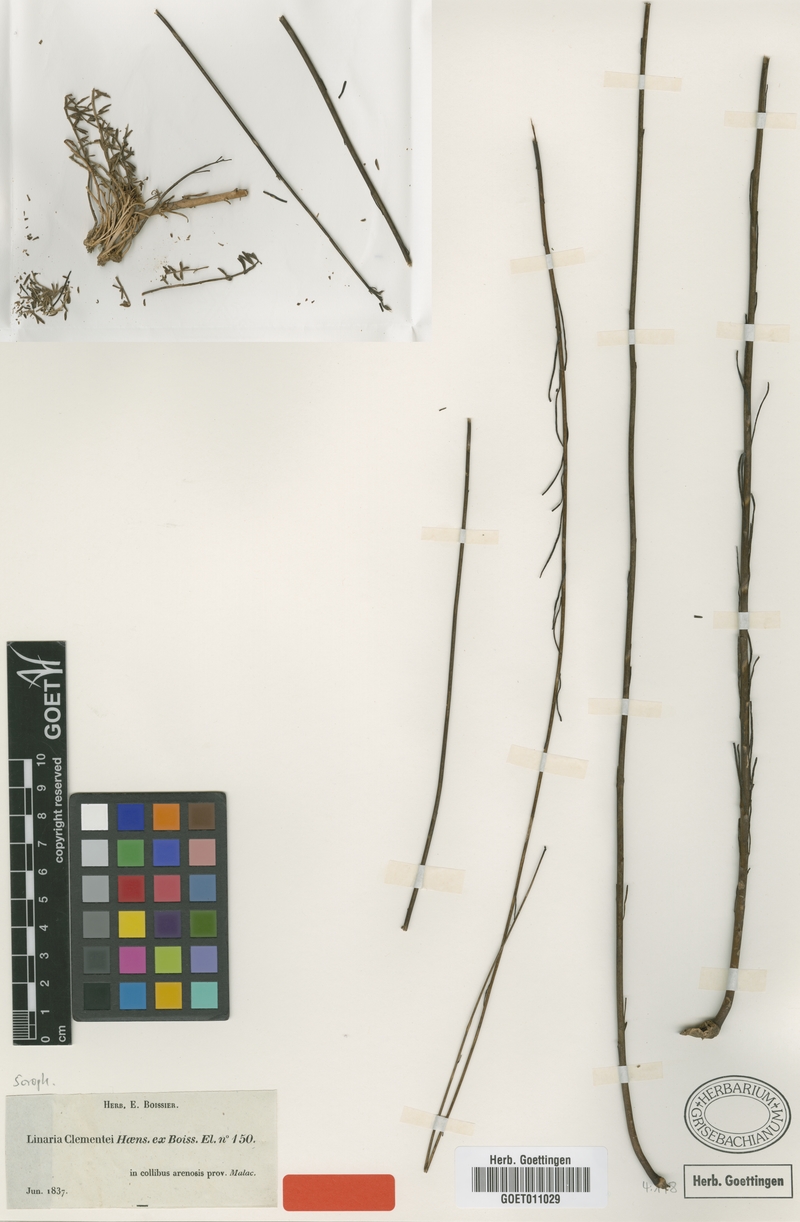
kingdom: Plantae
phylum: Tracheophyta
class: Magnoliopsida
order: Lamiales
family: Plantaginaceae
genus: Linaria
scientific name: Linaria clementei
